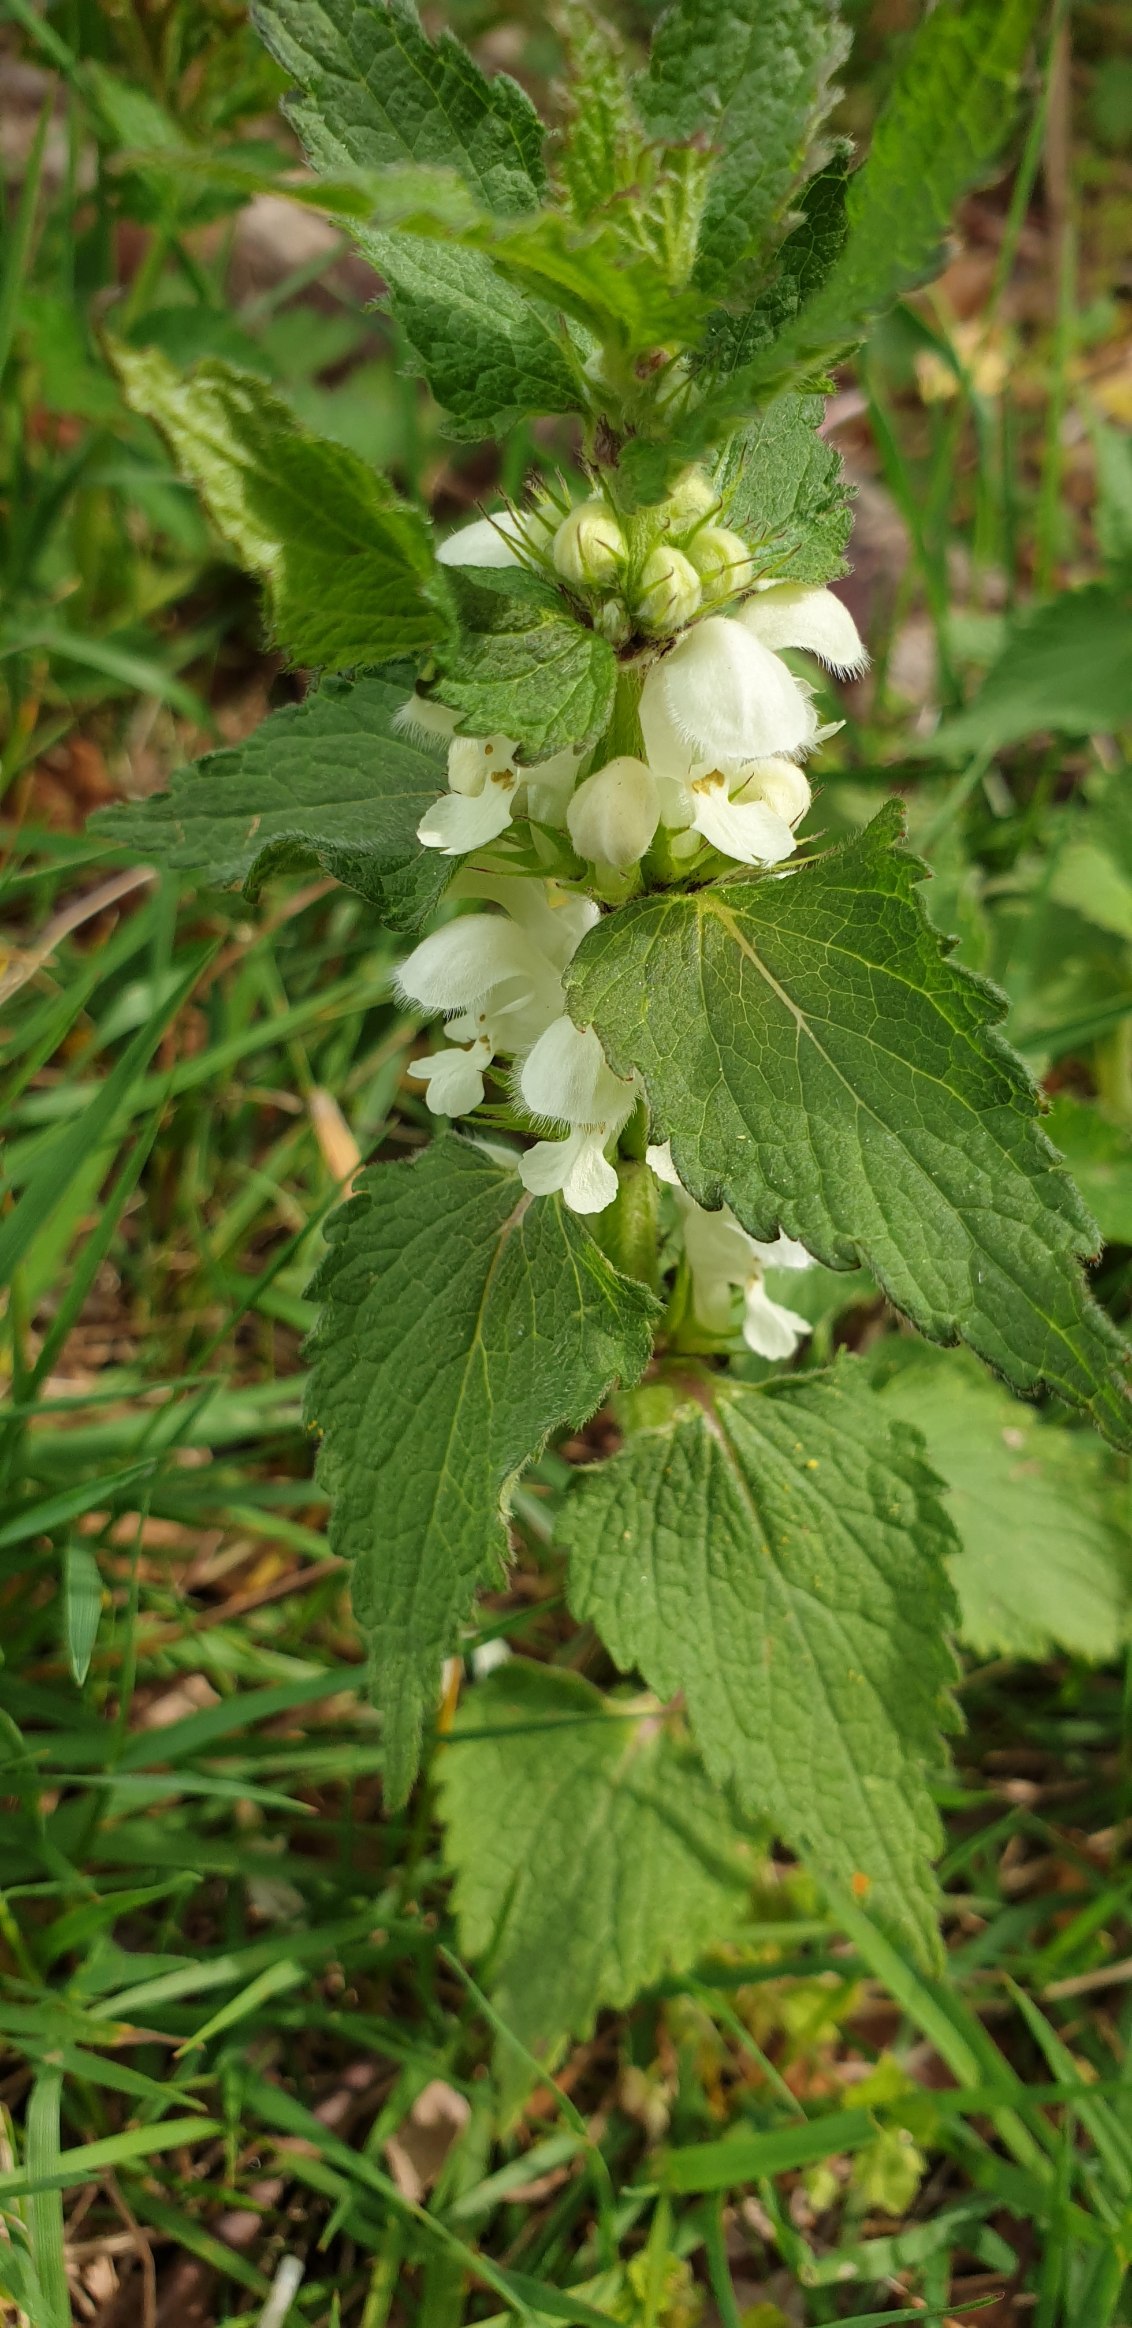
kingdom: Plantae
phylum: Tracheophyta
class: Magnoliopsida
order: Lamiales
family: Lamiaceae
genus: Lamium
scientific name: Lamium album
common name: Døvnælde
